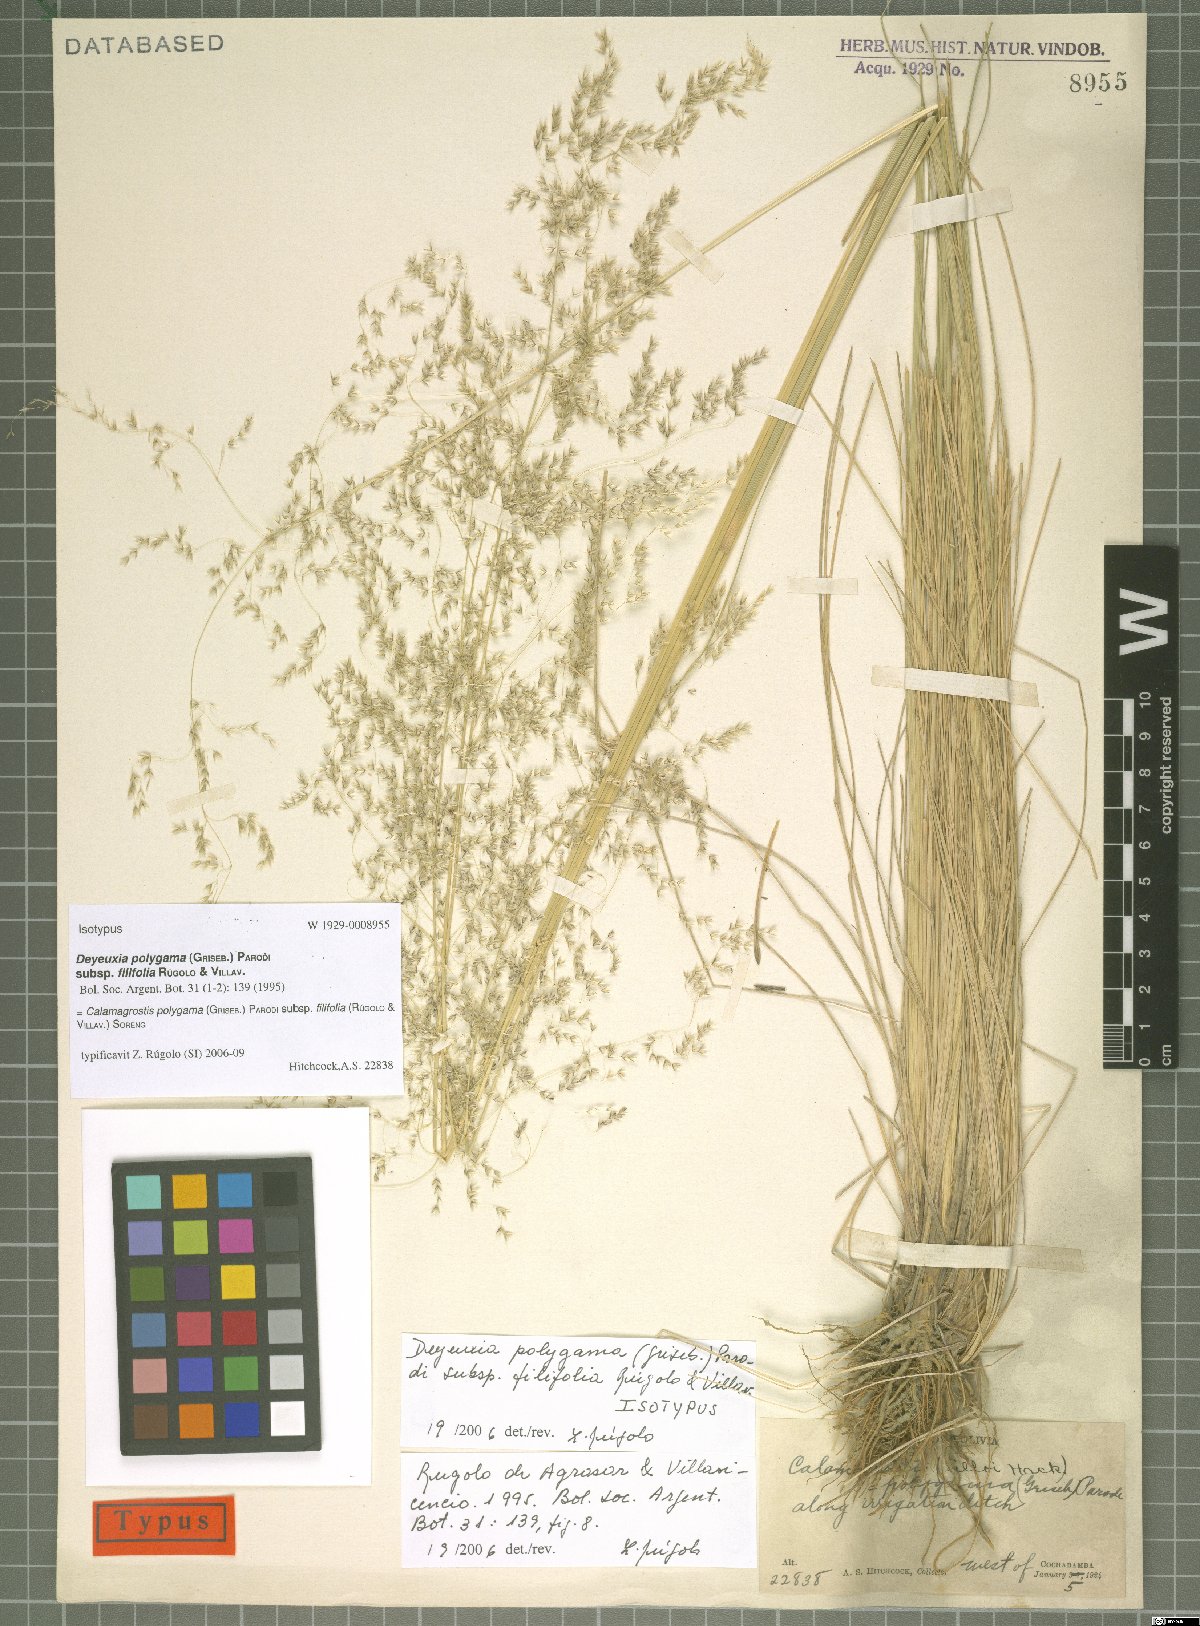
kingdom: Plantae
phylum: Tracheophyta
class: Liliopsida
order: Poales
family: Poaceae
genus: Cinnagrostis
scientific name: Cinnagrostis polygama
